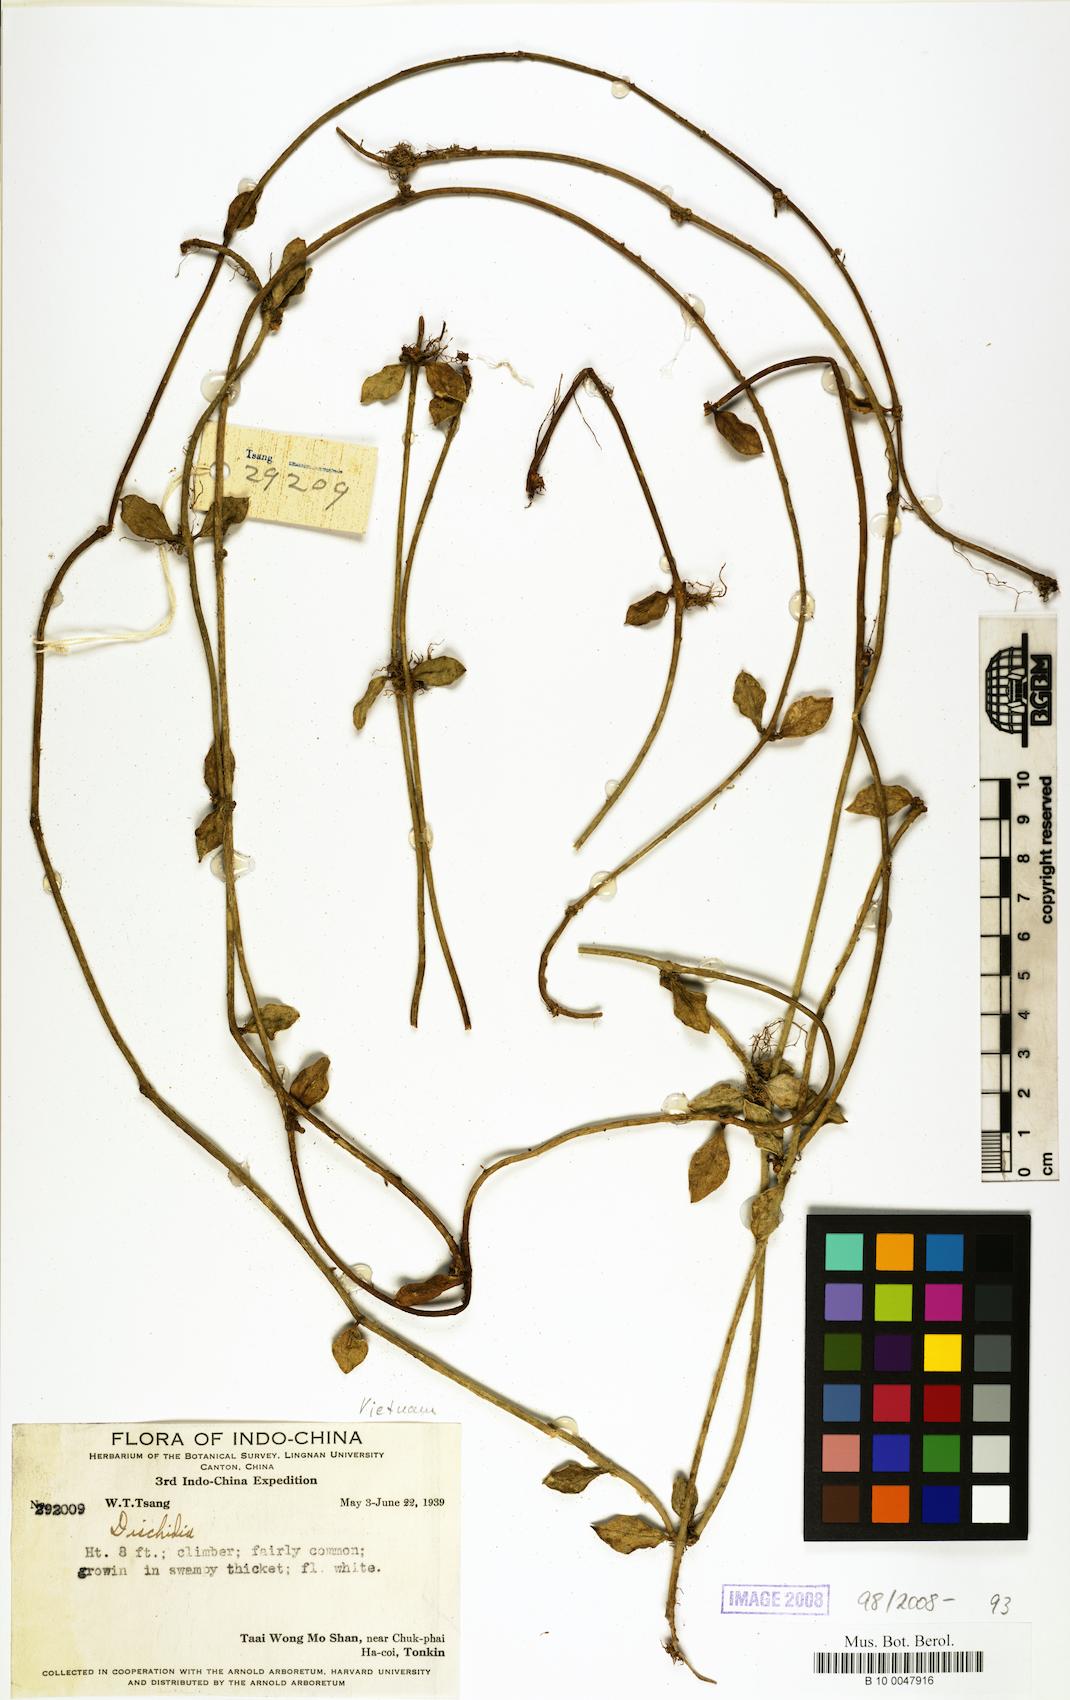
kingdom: Plantae
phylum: Tracheophyta
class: Magnoliopsida
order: Gentianales
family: Apocynaceae
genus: Dischidia
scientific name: Dischidia
